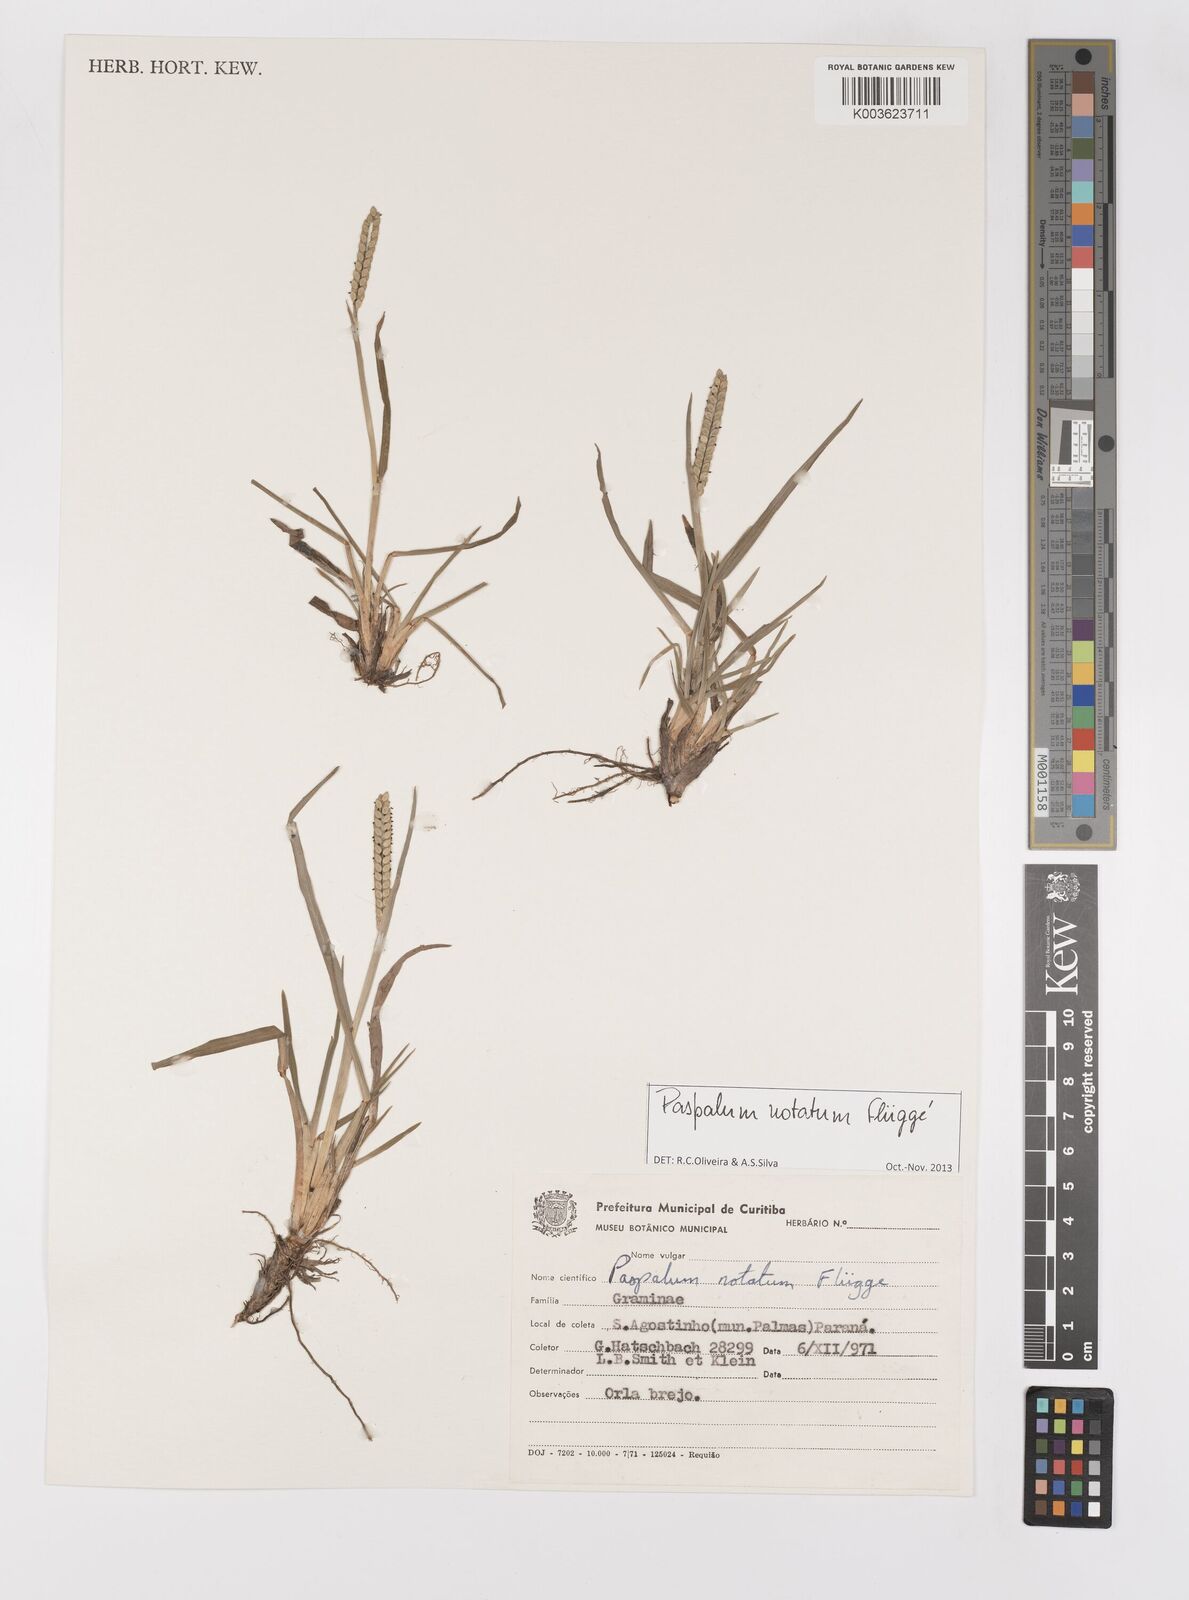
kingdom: Plantae
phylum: Tracheophyta
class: Liliopsida
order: Poales
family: Poaceae
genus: Paspalum
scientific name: Paspalum notatum
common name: Bahiagrass
